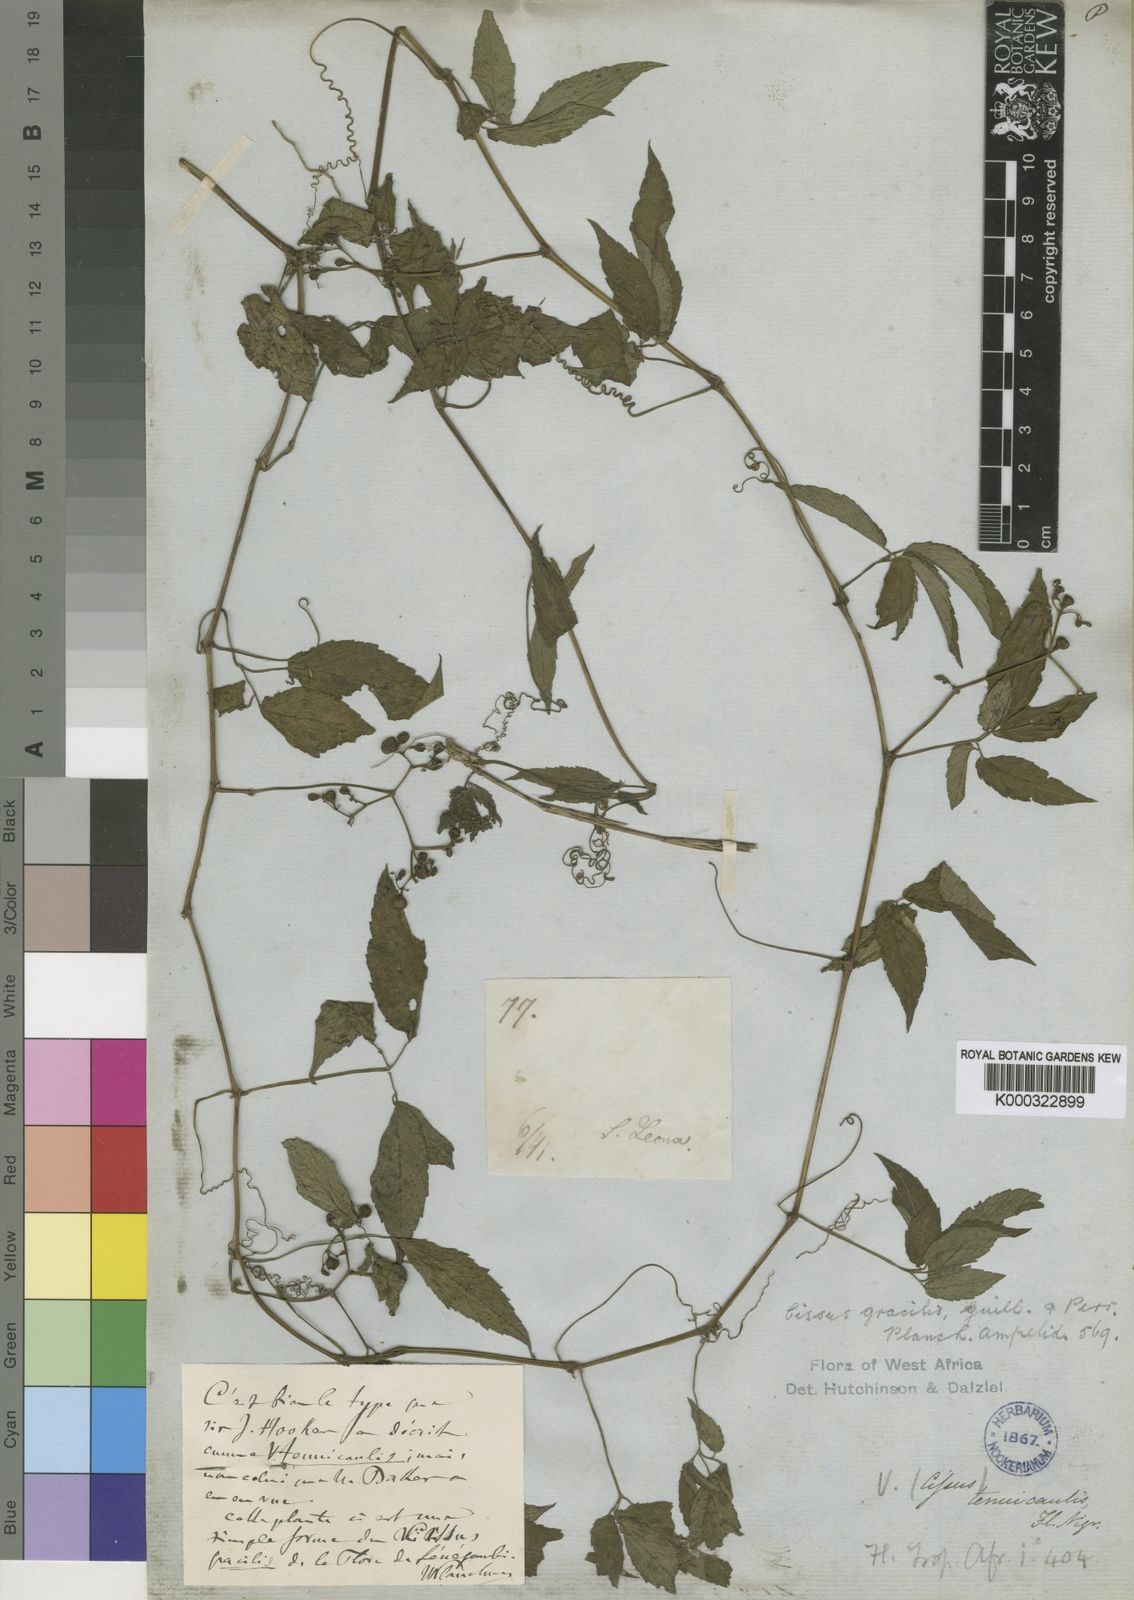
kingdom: Plantae
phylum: Tracheophyta
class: Magnoliopsida
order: Vitales
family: Vitaceae
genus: Afrocayratia
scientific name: Afrocayratia gracilis
